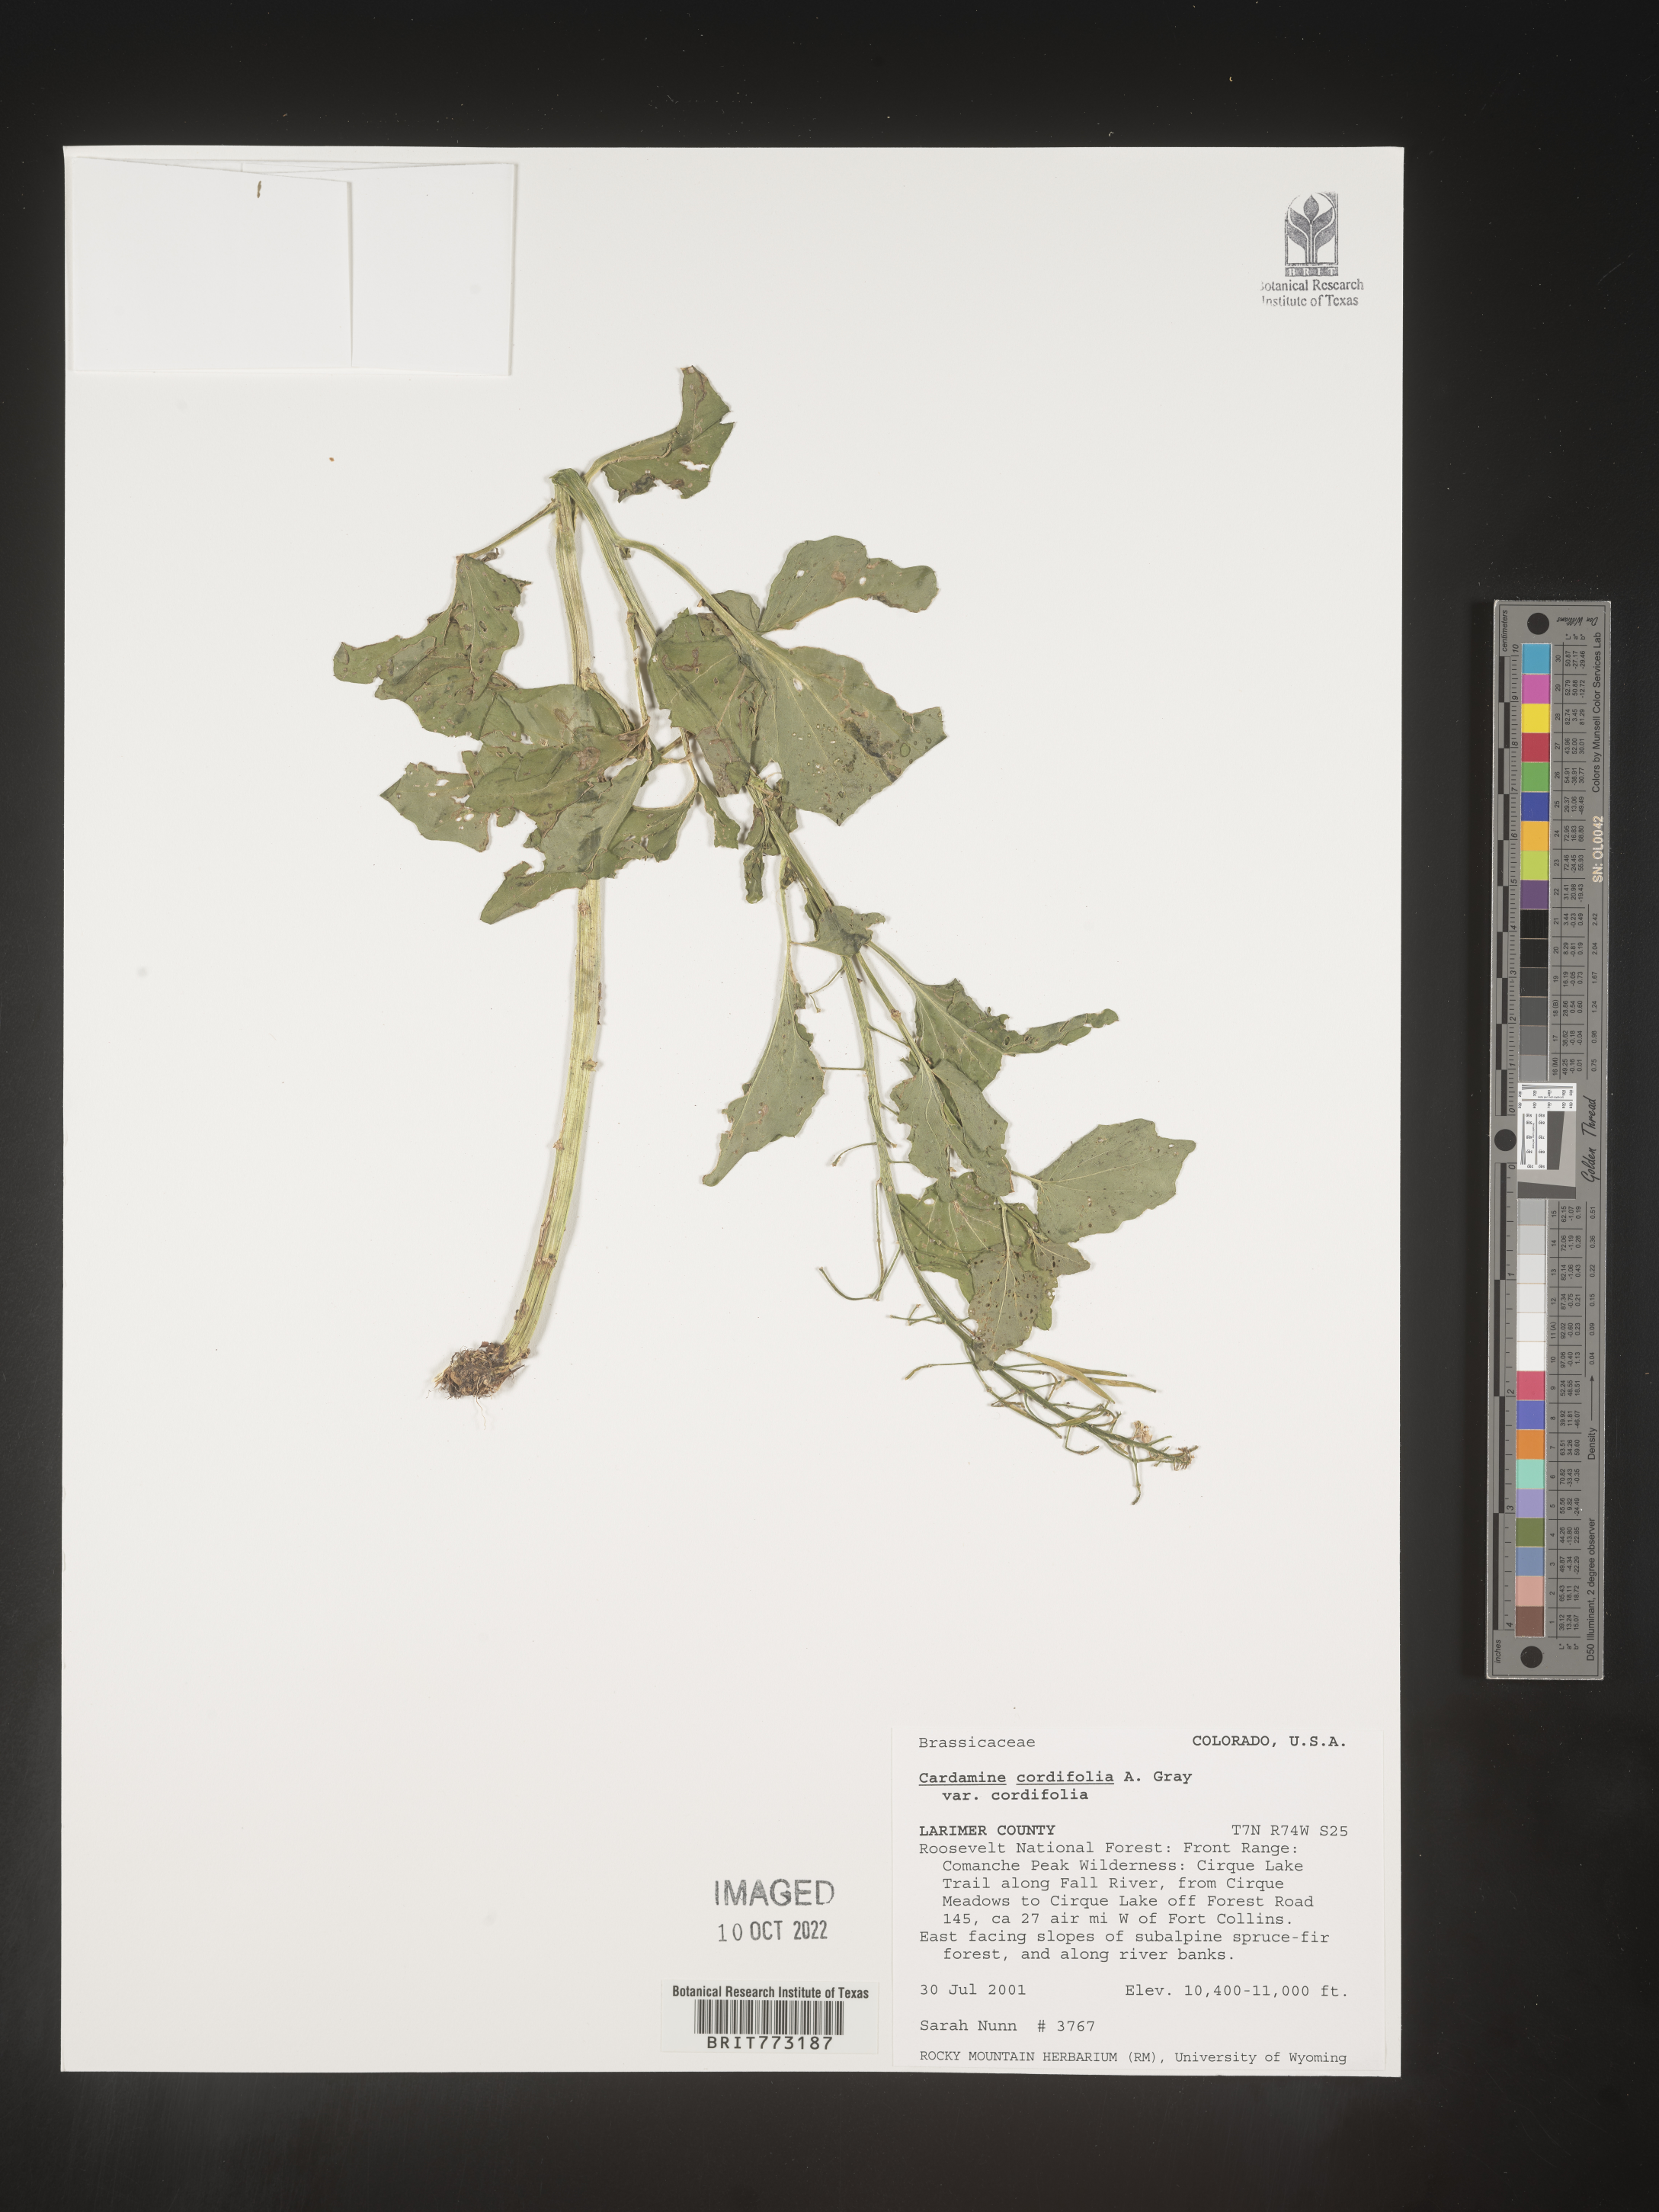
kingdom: Plantae
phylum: Tracheophyta
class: Magnoliopsida
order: Brassicales
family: Brassicaceae
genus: Cardamine
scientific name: Cardamine
